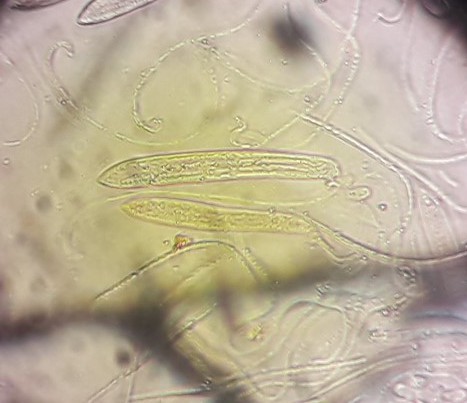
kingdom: Fungi
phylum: Ascomycota
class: Leotiomycetes
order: Rhytismatales
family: Rhytismataceae
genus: Lophodermium
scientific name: Lophodermium caricinum
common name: star-fureplet
